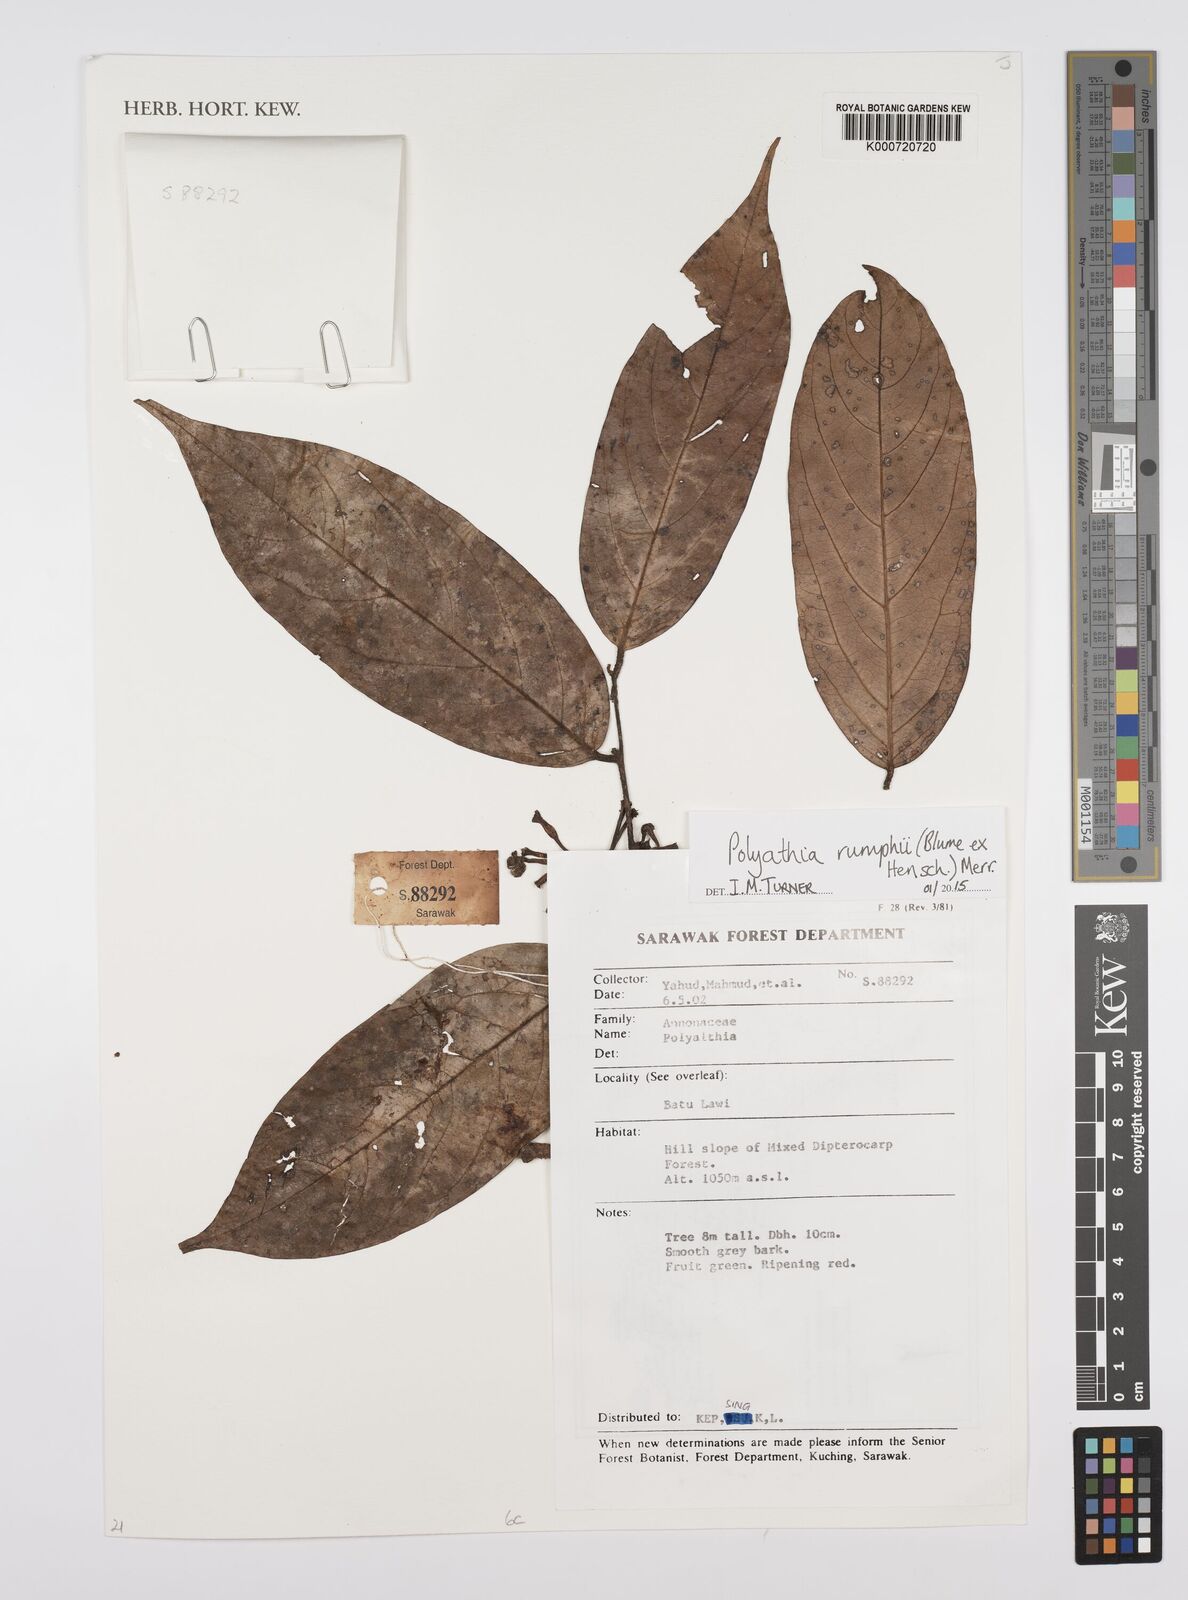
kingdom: Plantae
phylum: Tracheophyta
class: Magnoliopsida
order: Magnoliales
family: Annonaceae
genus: Hubera
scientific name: Hubera rumphii
